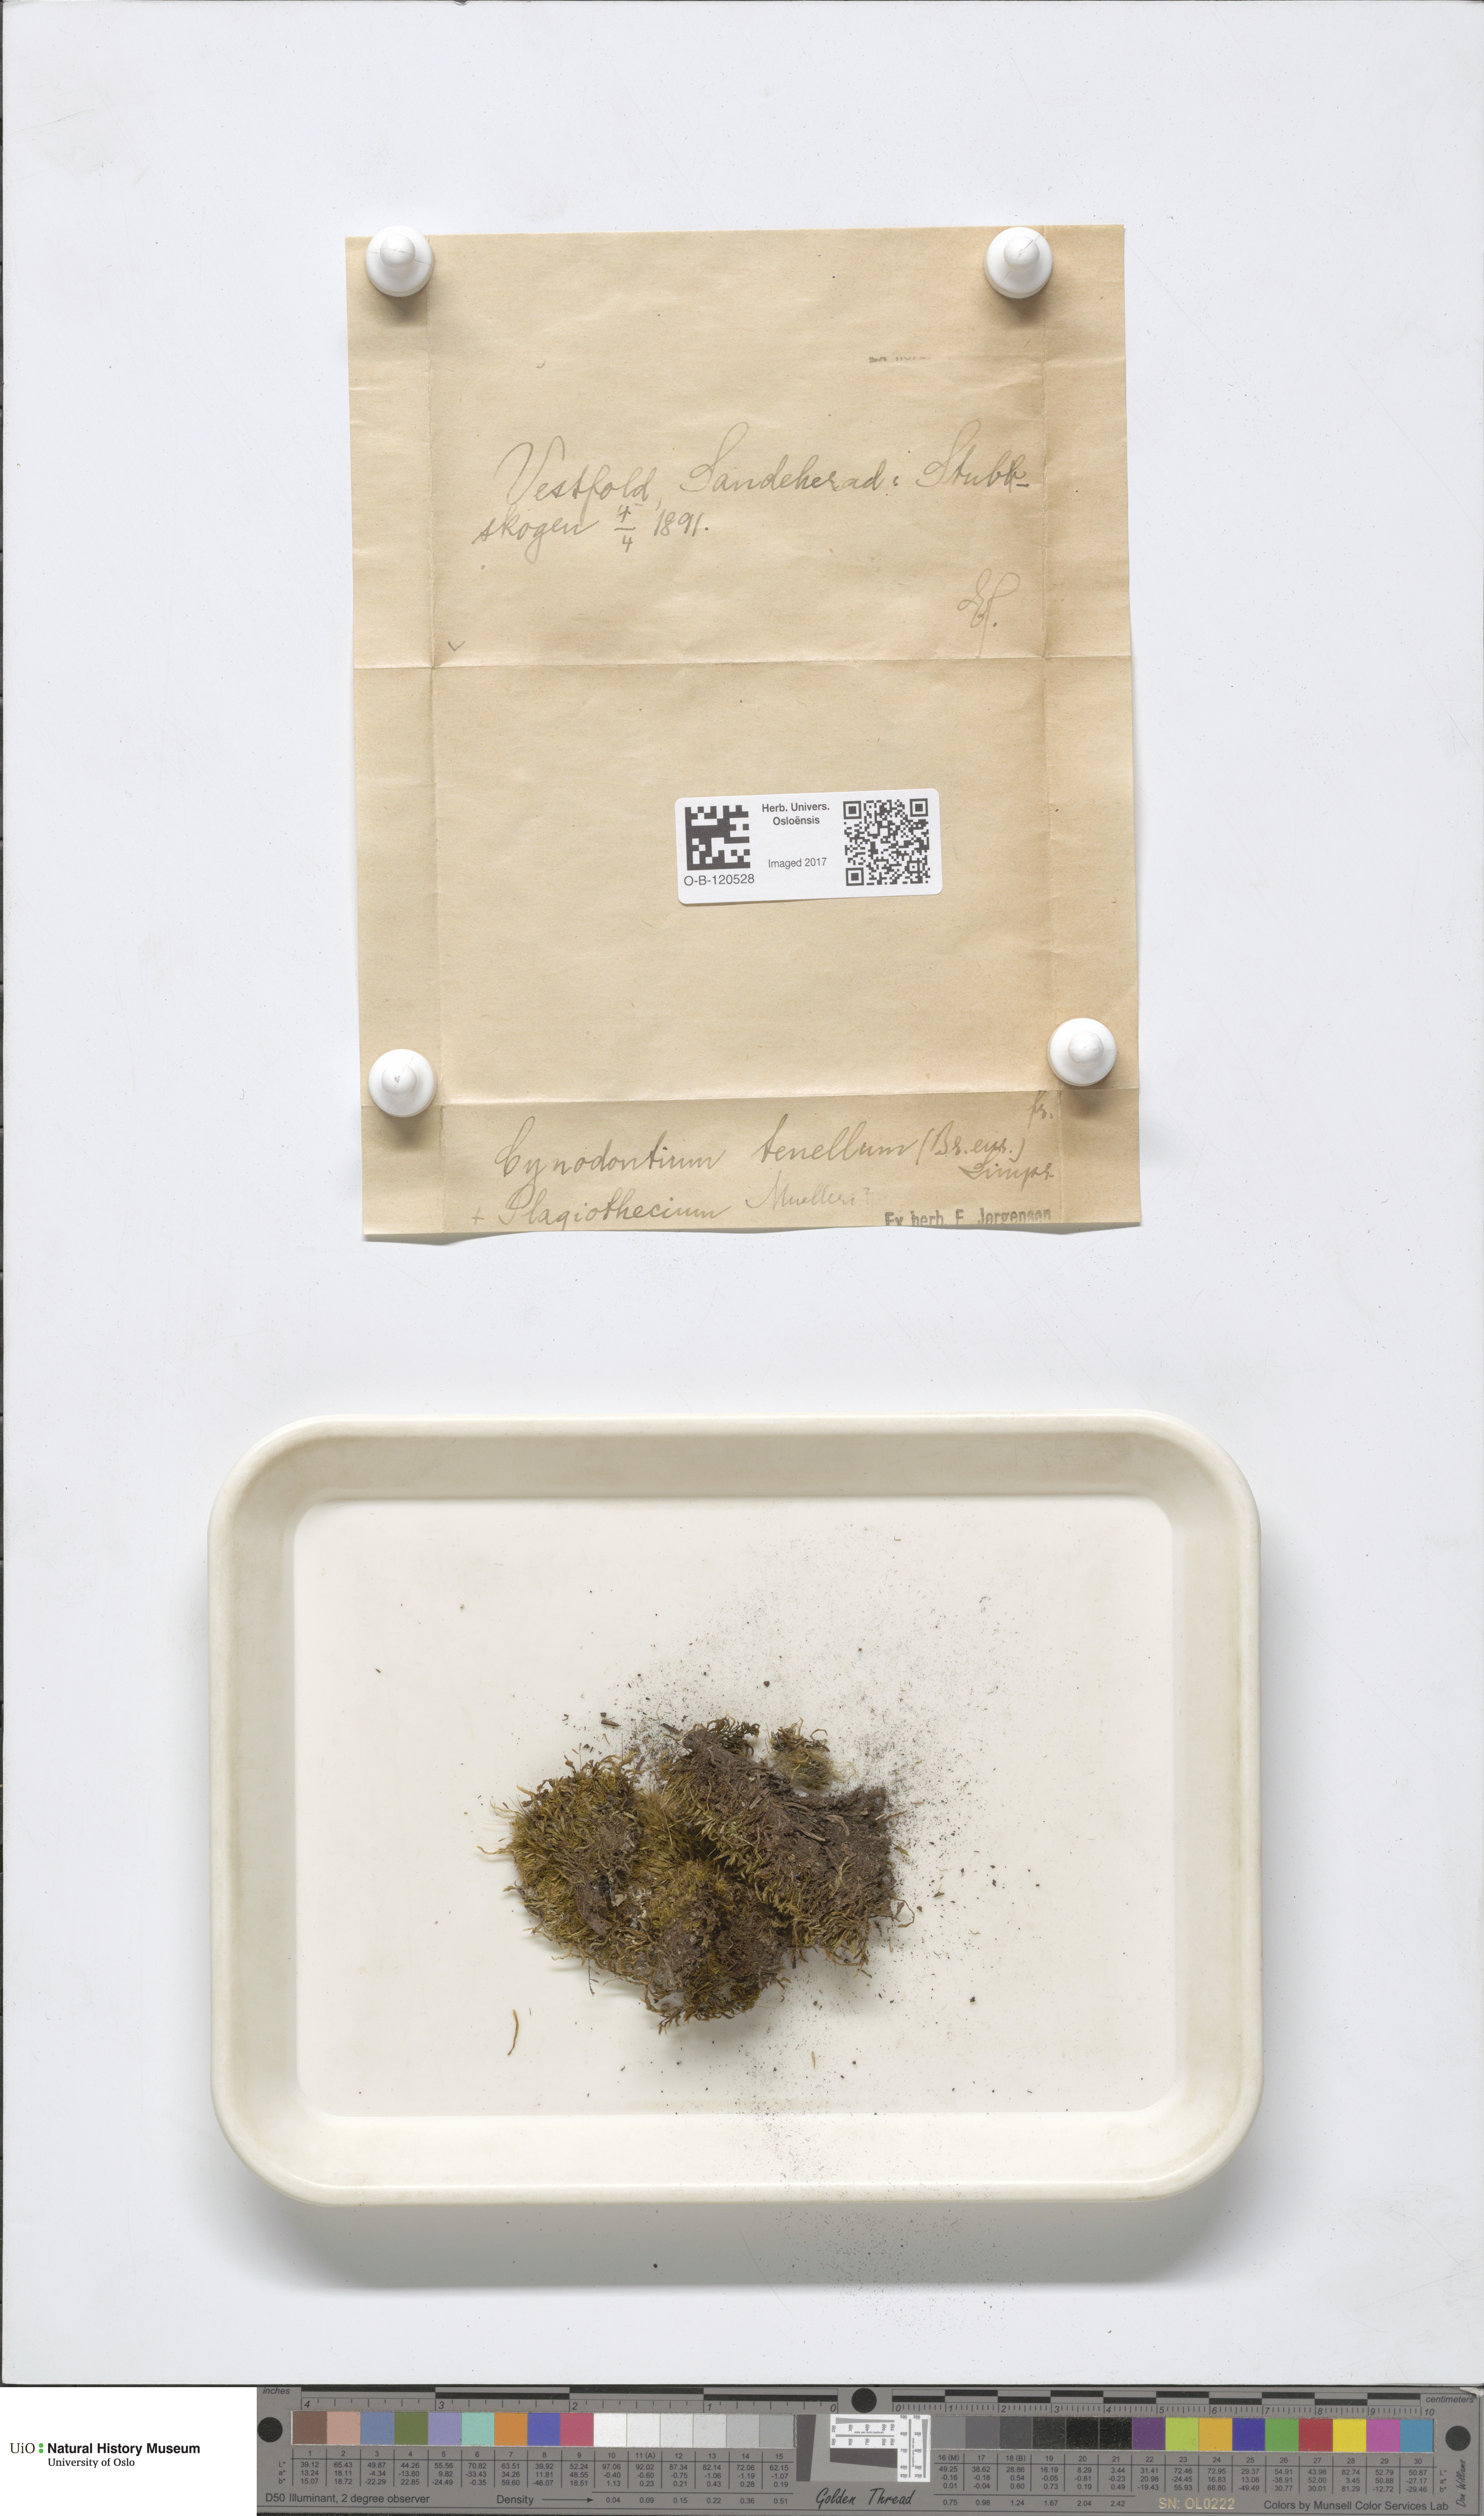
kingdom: Plantae
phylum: Bryophyta
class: Bryopsida
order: Dicranales
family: Rhabdoweisiaceae
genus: Cynodontium
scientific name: Cynodontium tenellum
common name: Delicate dogtooth moss
